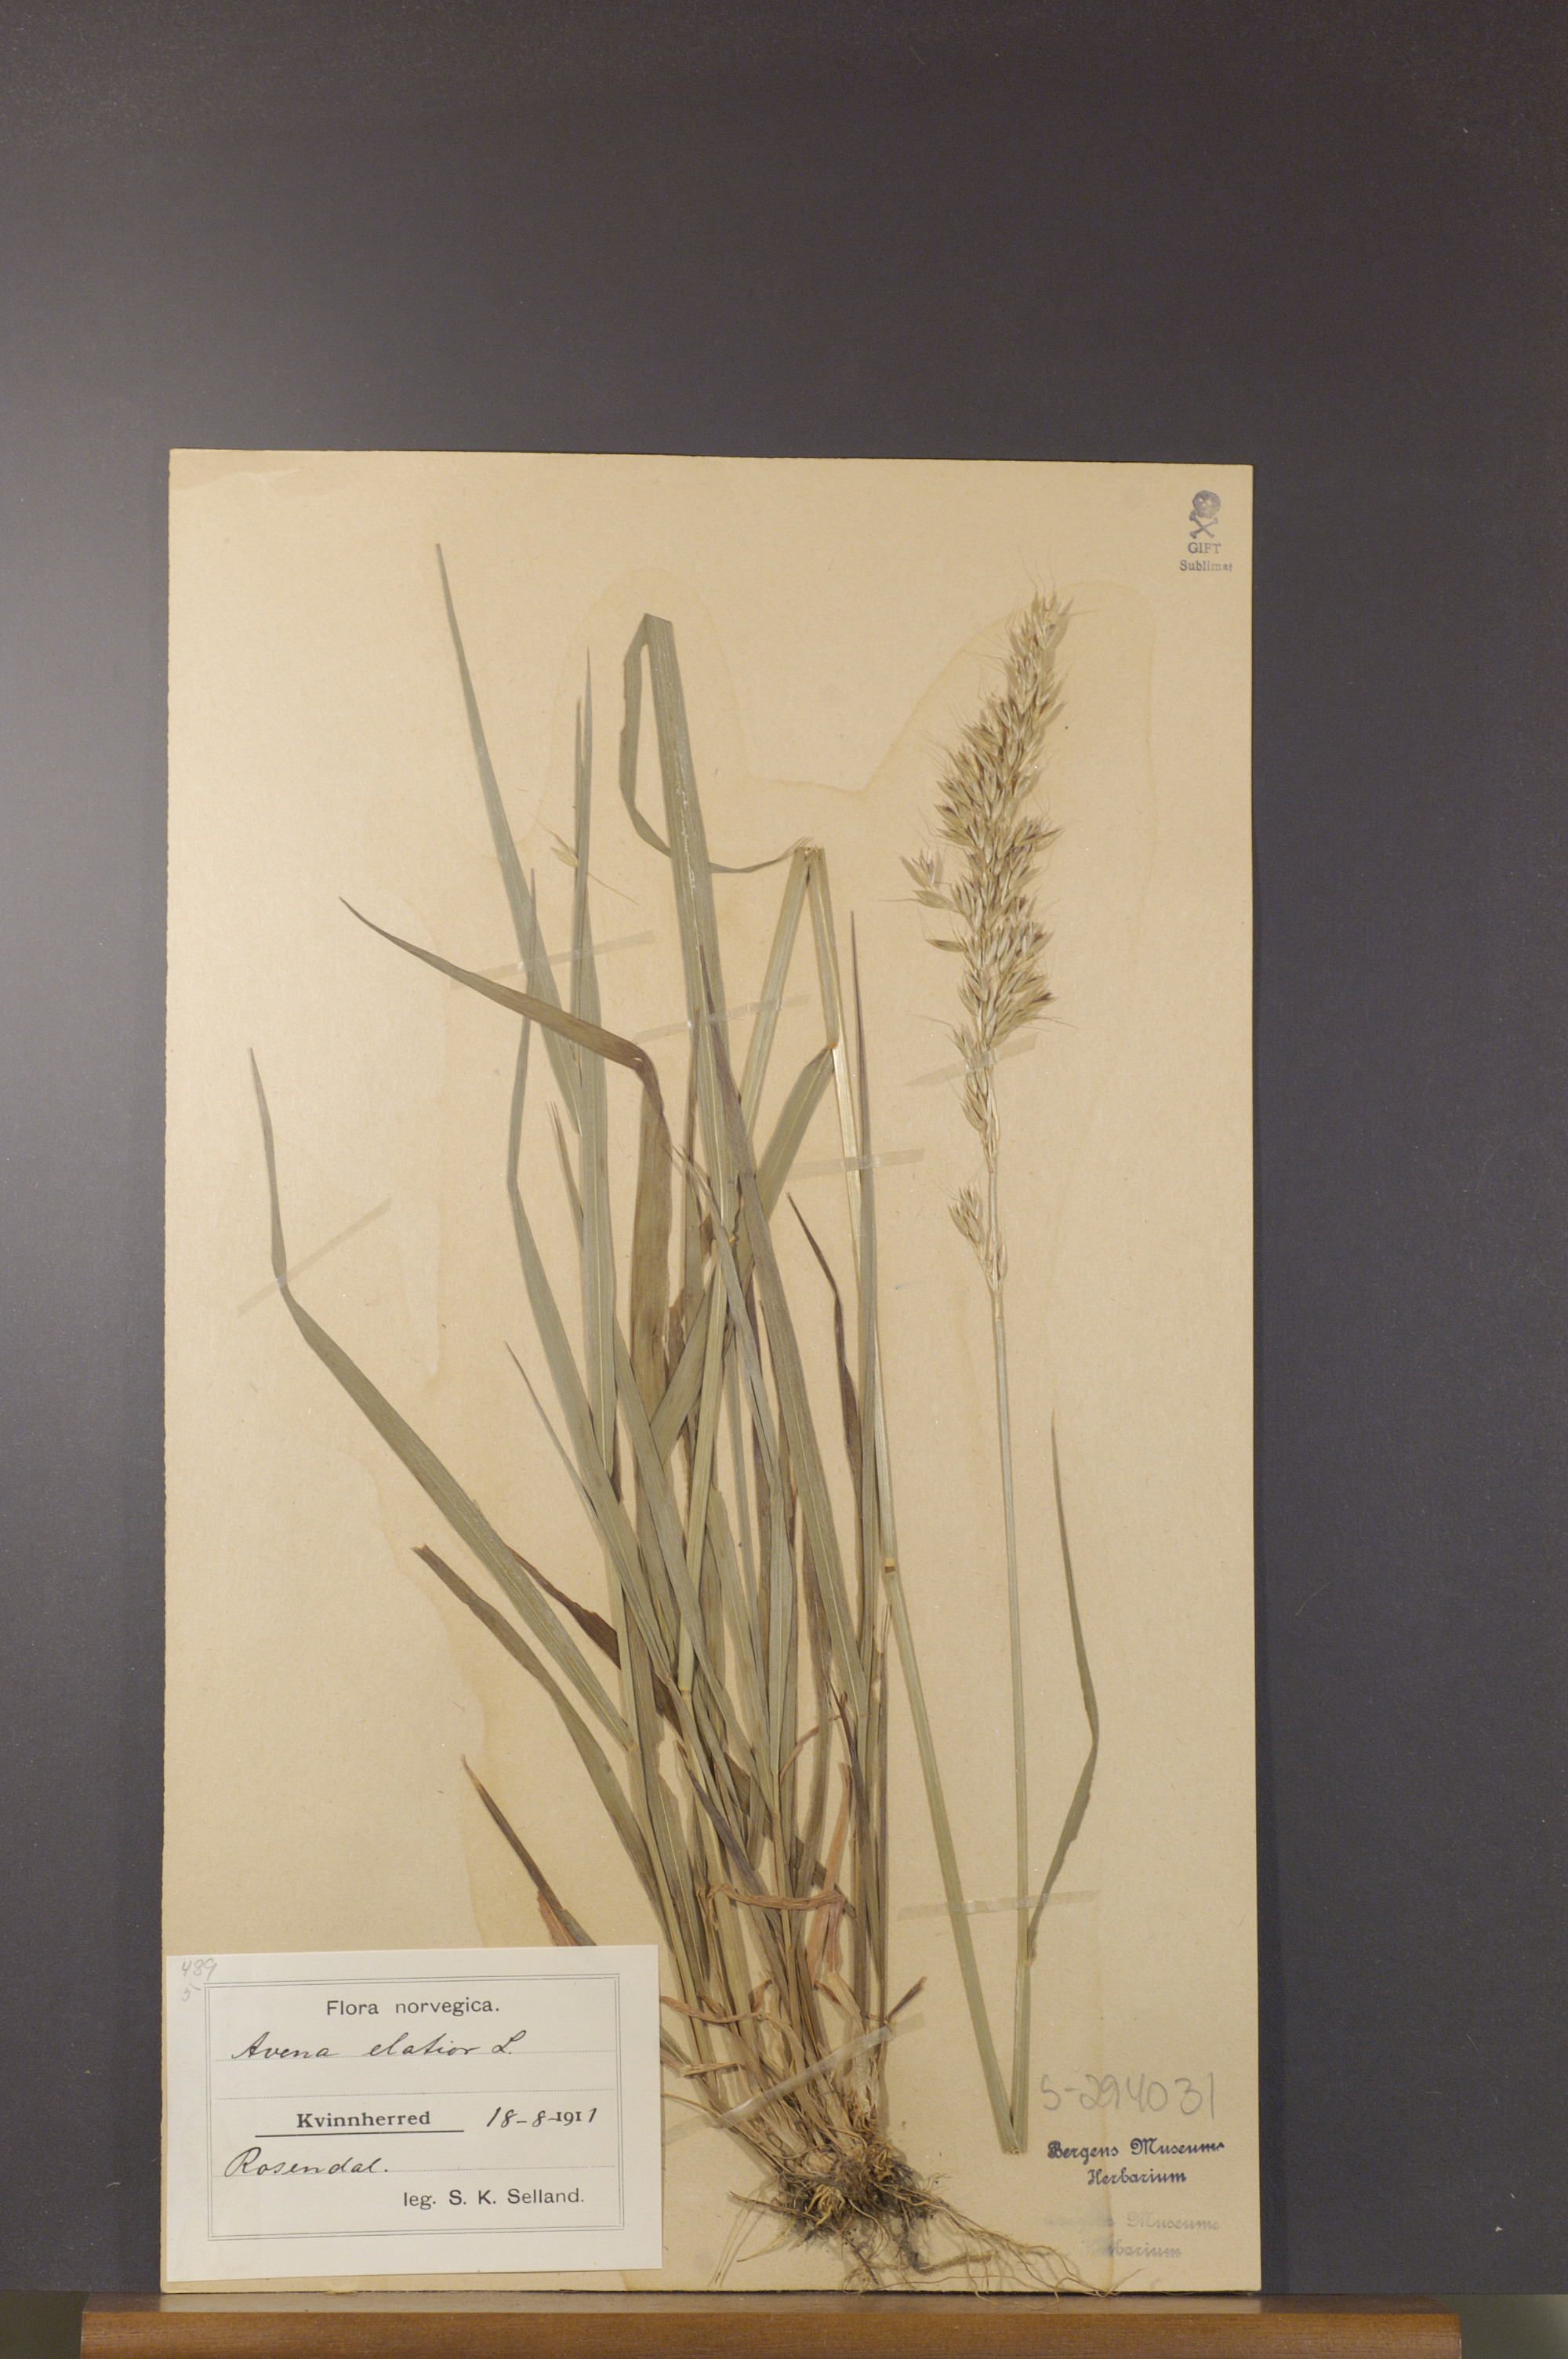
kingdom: Plantae
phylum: Tracheophyta
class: Liliopsida
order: Poales
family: Poaceae
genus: Arrhenatherum
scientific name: Arrhenatherum elatius
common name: Tall oatgrass
